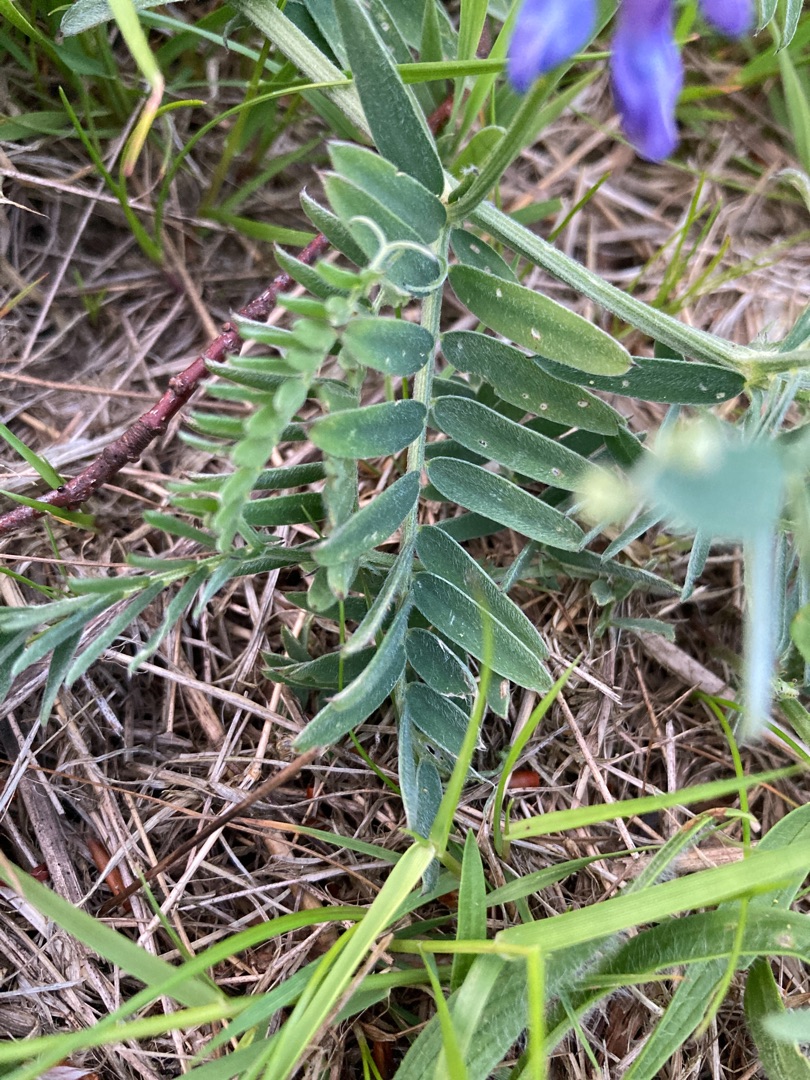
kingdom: Plantae
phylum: Tracheophyta
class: Magnoliopsida
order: Fabales
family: Fabaceae
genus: Vicia
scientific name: Vicia cracca
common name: Muse-vikke
